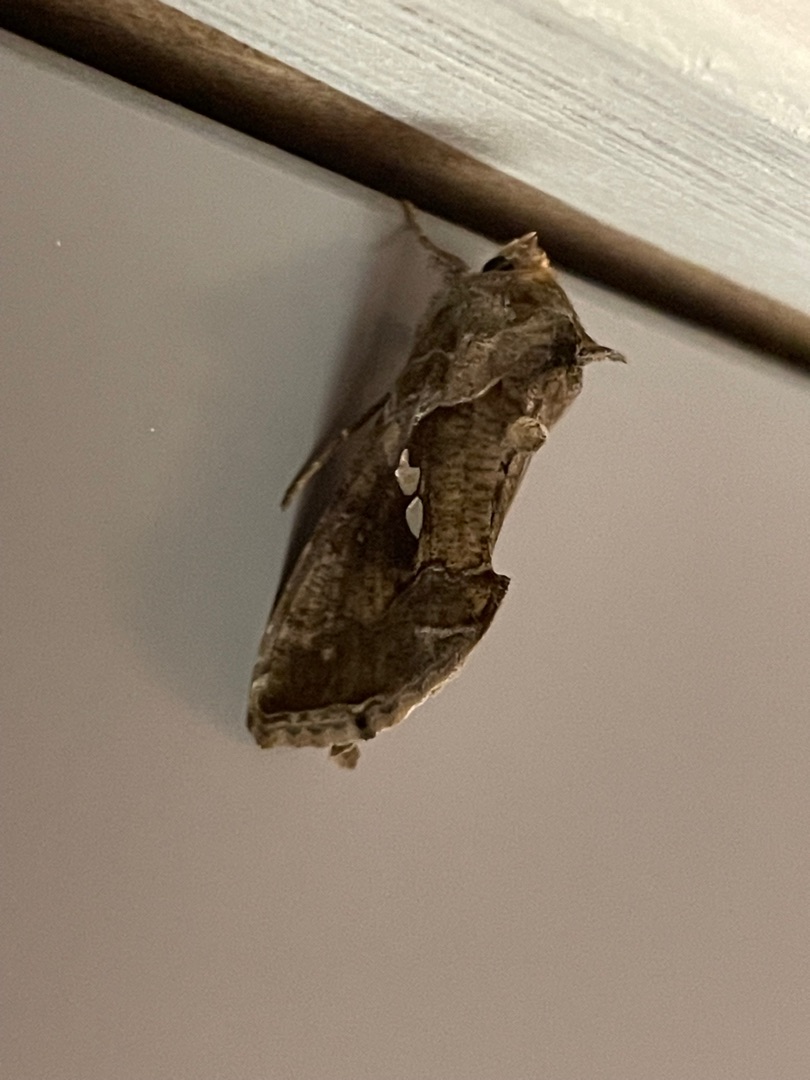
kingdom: Animalia
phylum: Arthropoda
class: Insecta
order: Lepidoptera
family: Noctuidae
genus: Chrysodeixis
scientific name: Chrysodeixis chalcites
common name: Kobbersmykket metalugle
